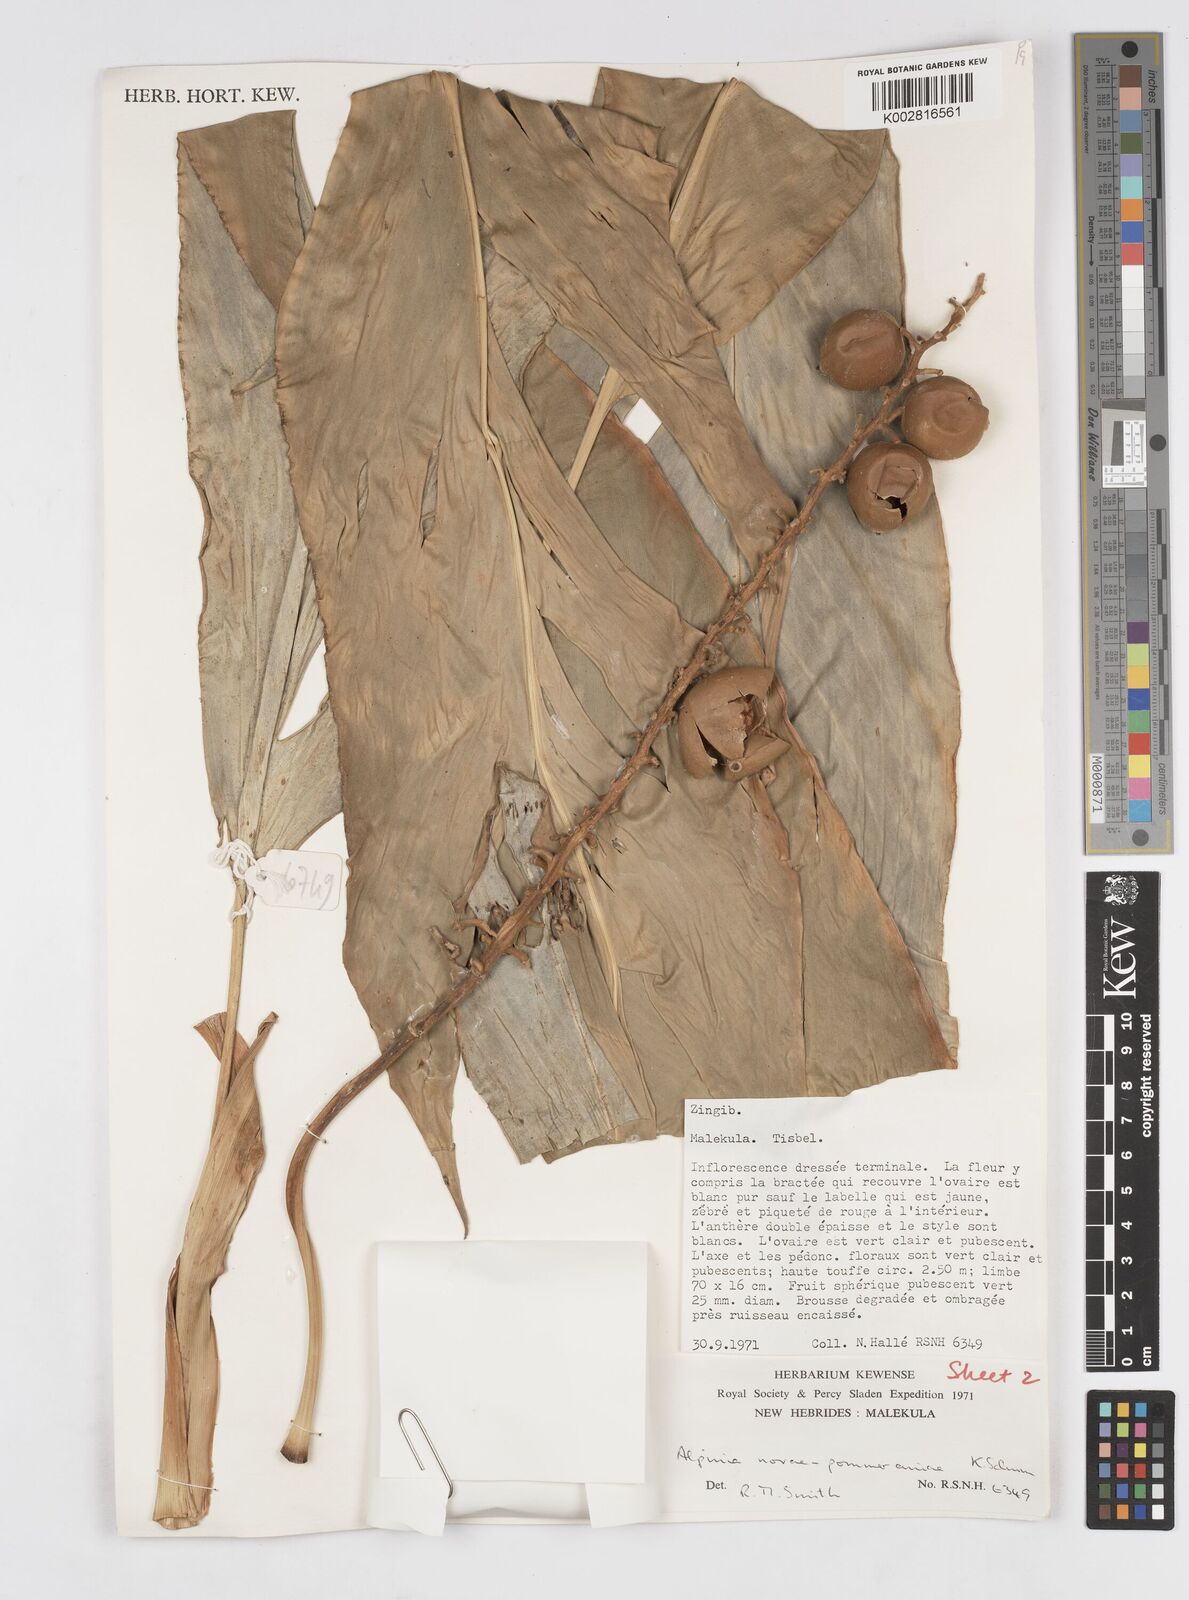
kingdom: Plantae
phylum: Tracheophyta
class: Liliopsida
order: Zingiberales
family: Zingiberaceae
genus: Alpinia
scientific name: Alpinia novae-pommeraniae
